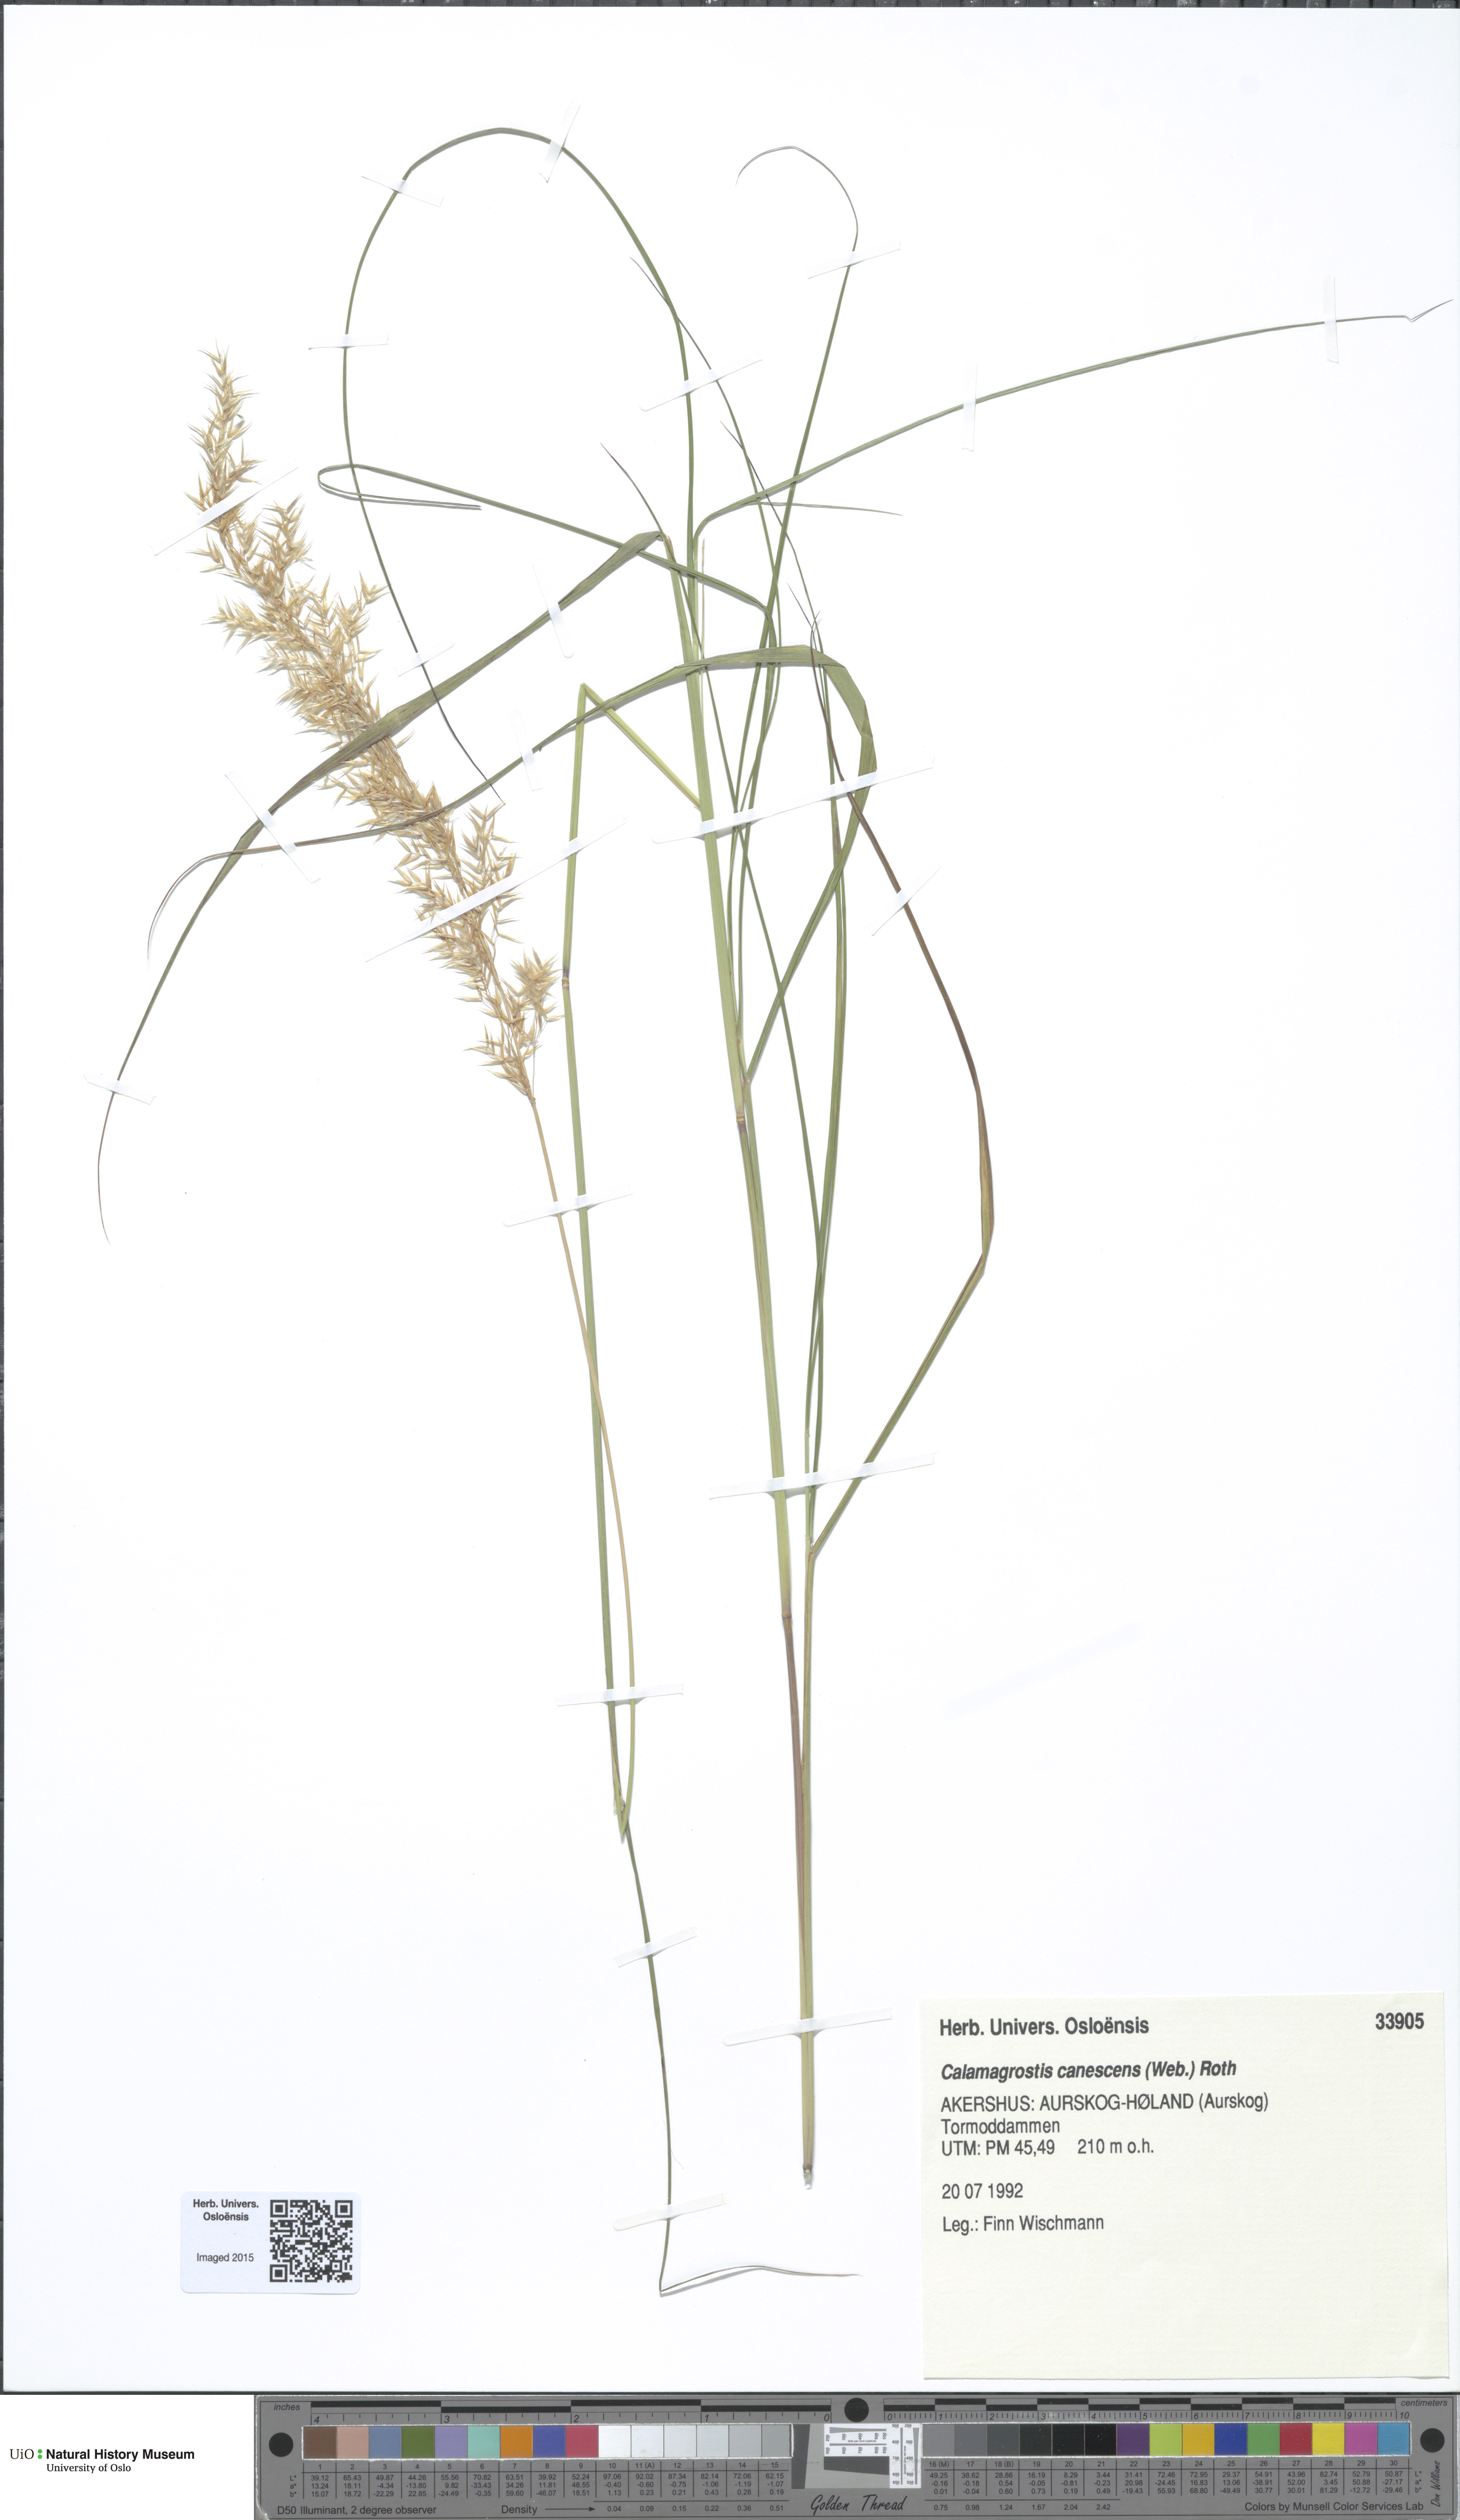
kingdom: Plantae
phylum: Tracheophyta
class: Liliopsida
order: Poales
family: Poaceae
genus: Calamagrostis
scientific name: Calamagrostis canescens
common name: Purple small-reed
